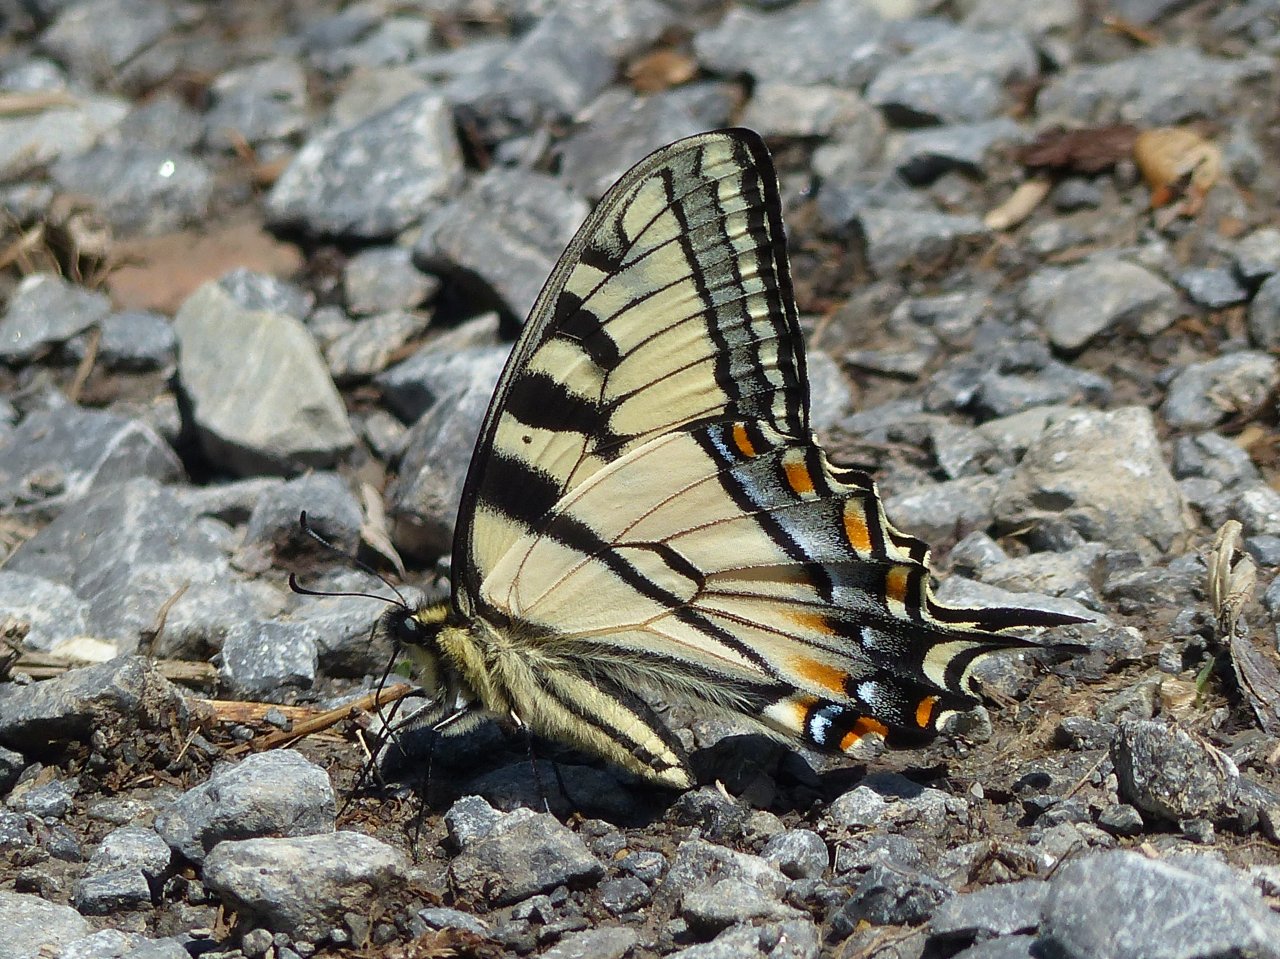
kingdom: Animalia
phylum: Arthropoda
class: Insecta
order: Lepidoptera
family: Papilionidae
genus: Pterourus
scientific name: Pterourus canadensis
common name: Canadian Tiger Swallowtail
